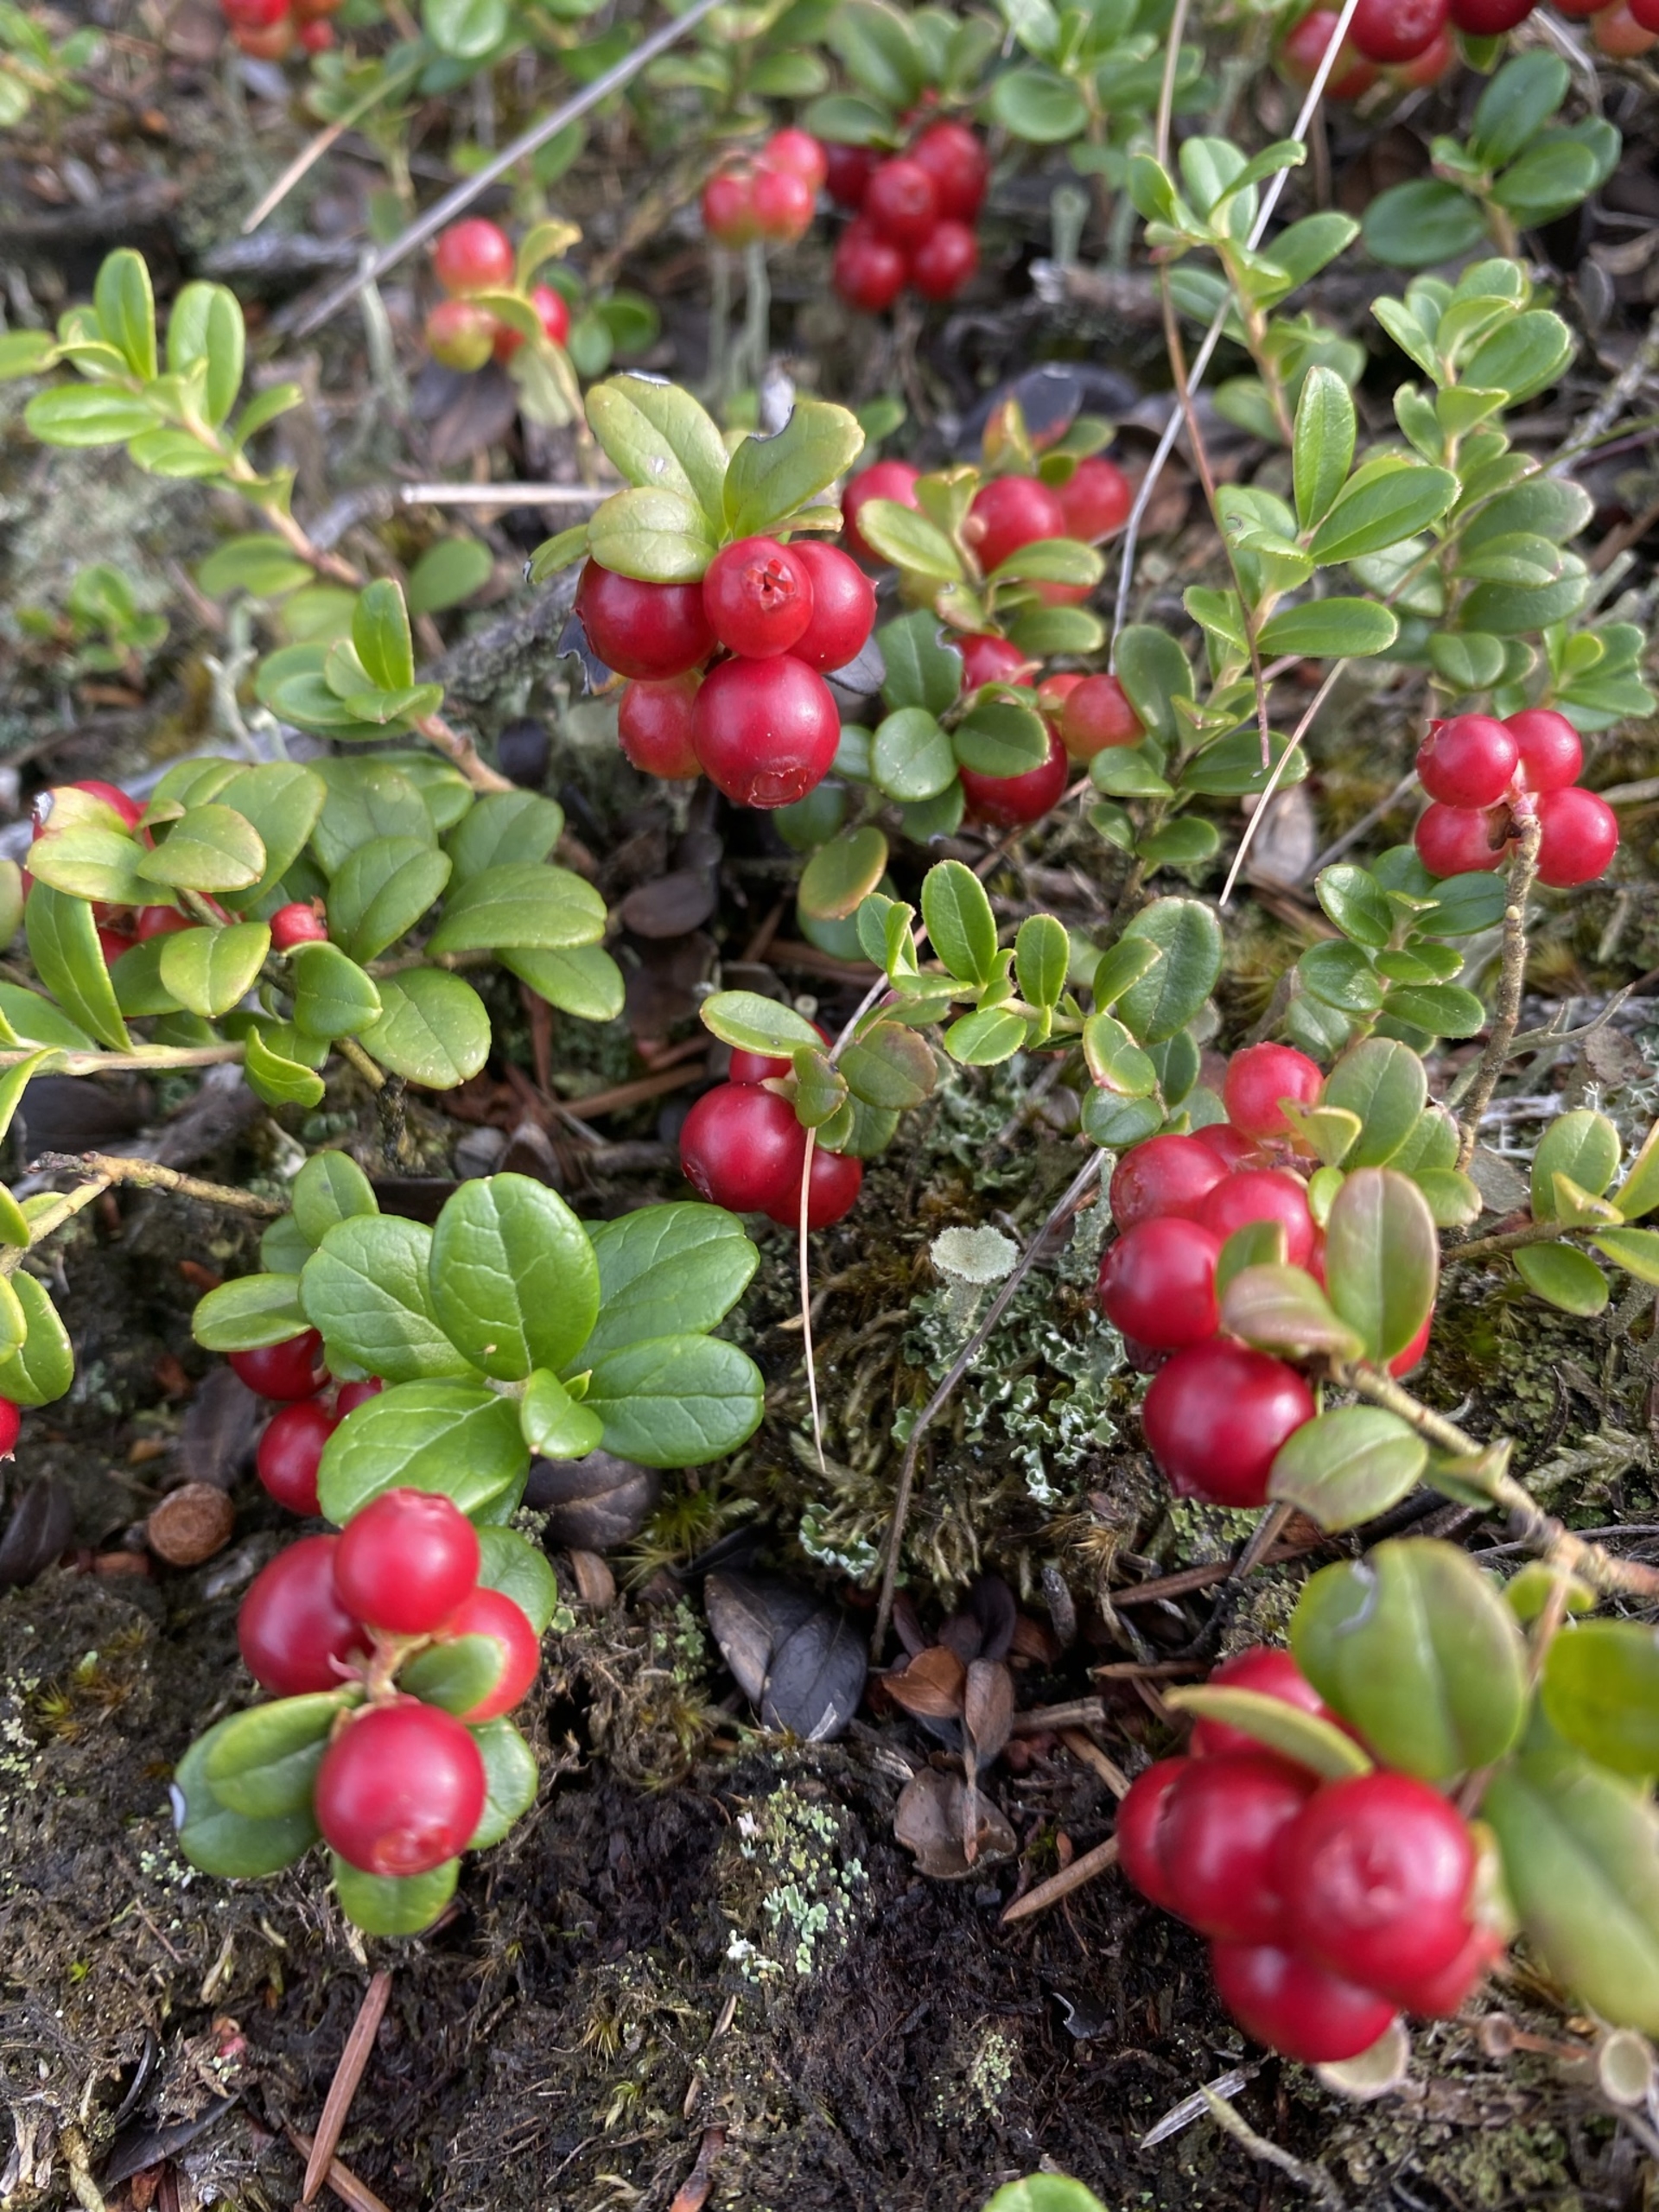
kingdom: Plantae
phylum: Tracheophyta
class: Magnoliopsida
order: Ericales
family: Ericaceae
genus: Vaccinium
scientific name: Vaccinium vitis-idaea
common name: Tyttebær
